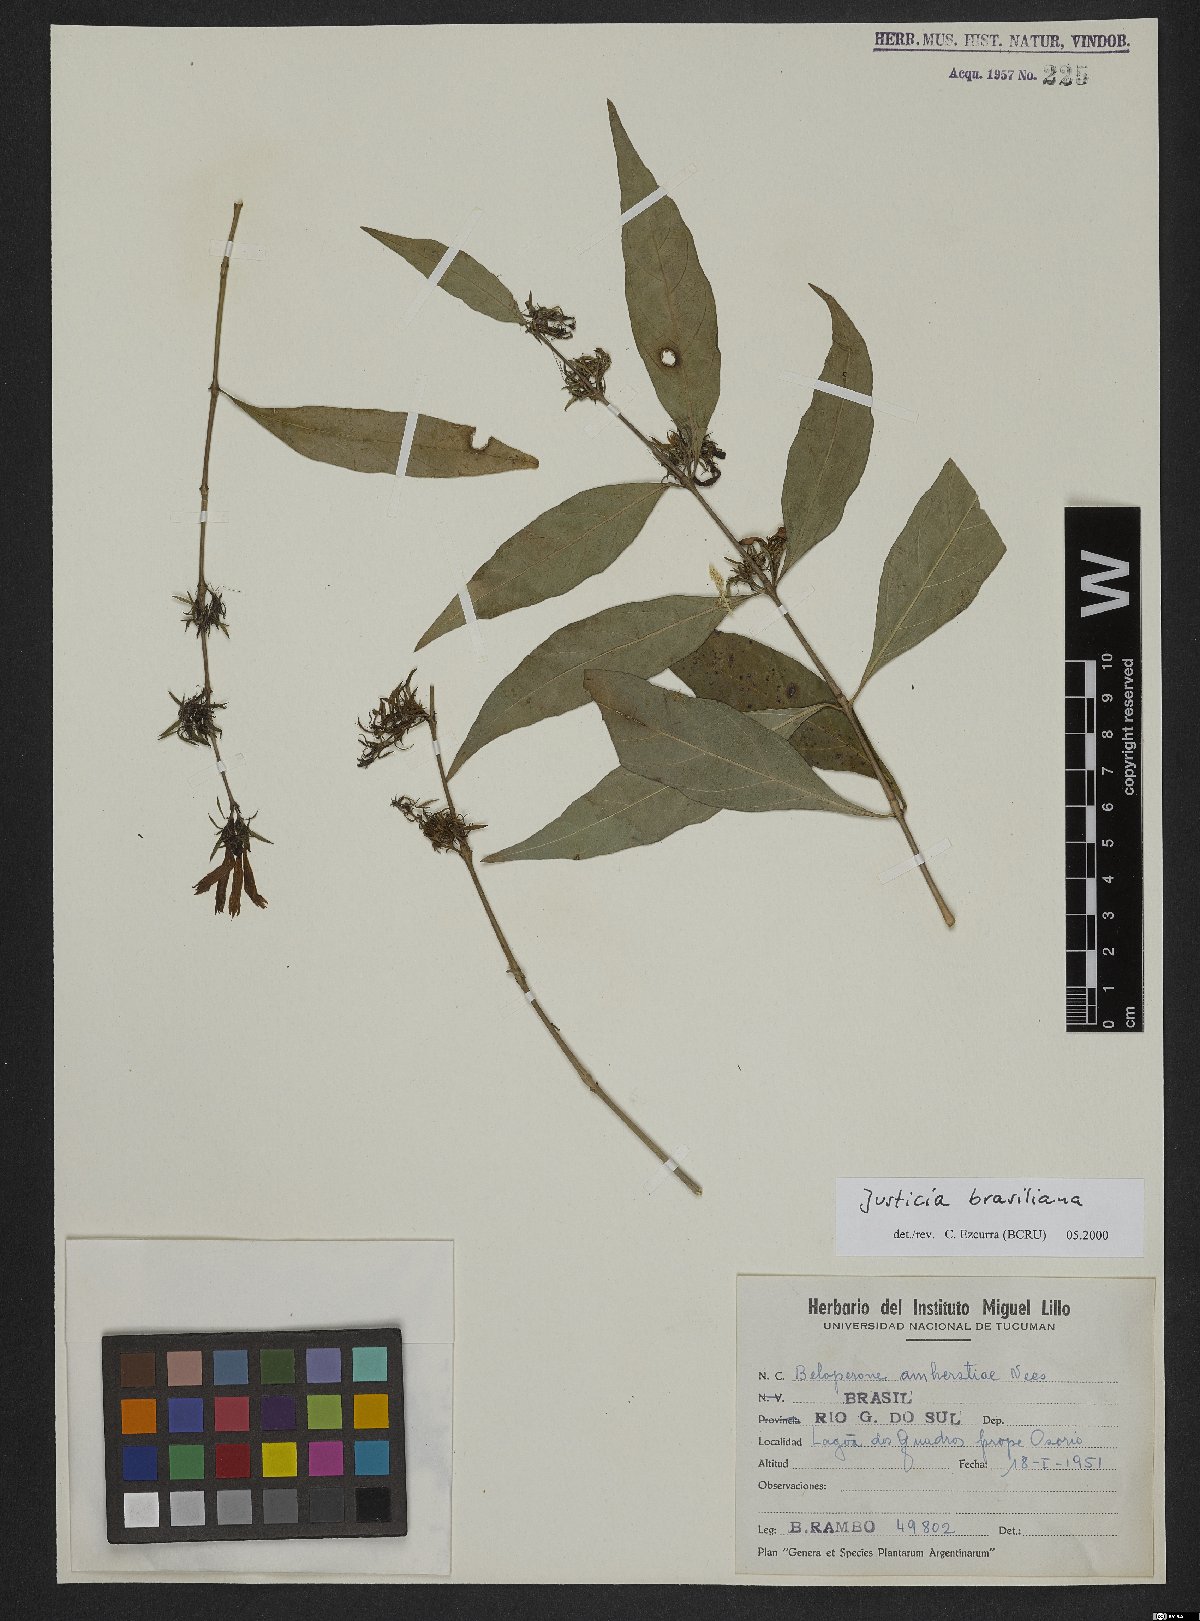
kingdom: Plantae
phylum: Tracheophyta
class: Magnoliopsida
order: Lamiales
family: Acanthaceae
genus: Justicia
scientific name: Justicia brasiliana
